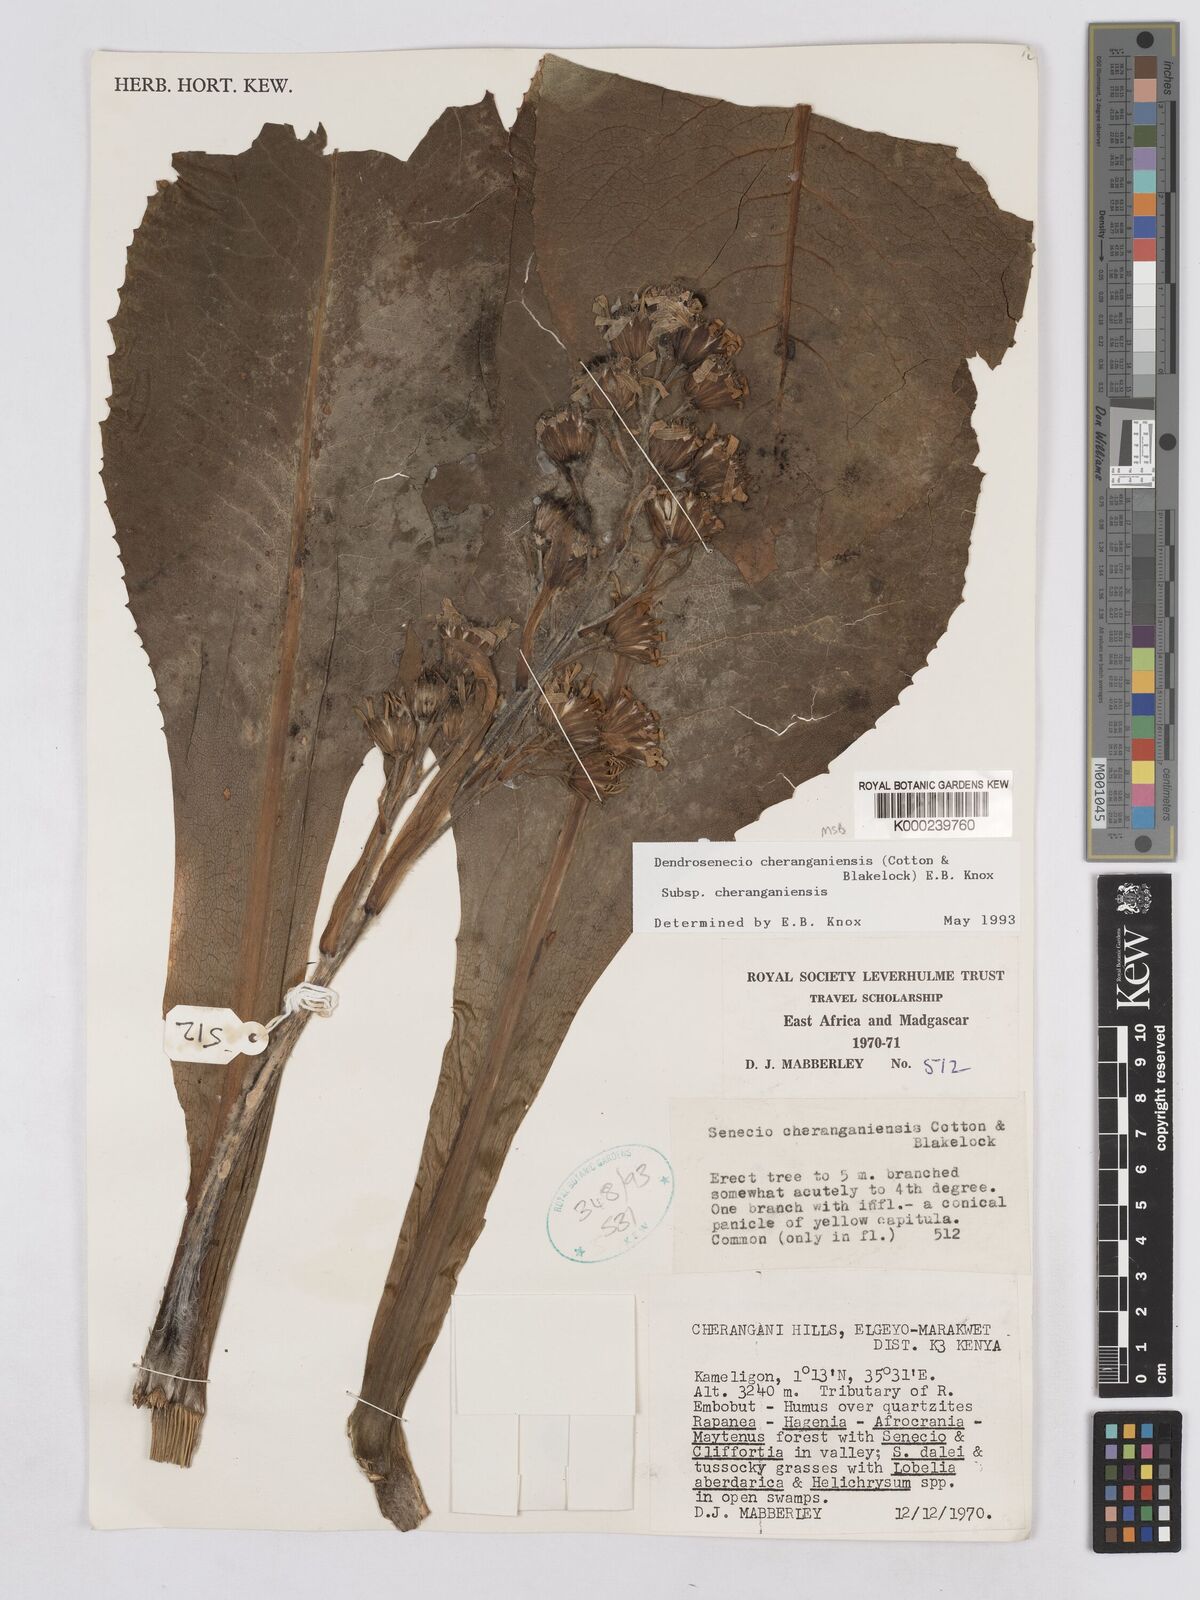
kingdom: Plantae
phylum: Tracheophyta
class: Magnoliopsida
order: Asterales
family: Asteraceae
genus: Dendrosenecio
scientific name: Dendrosenecio cheranganiensis
